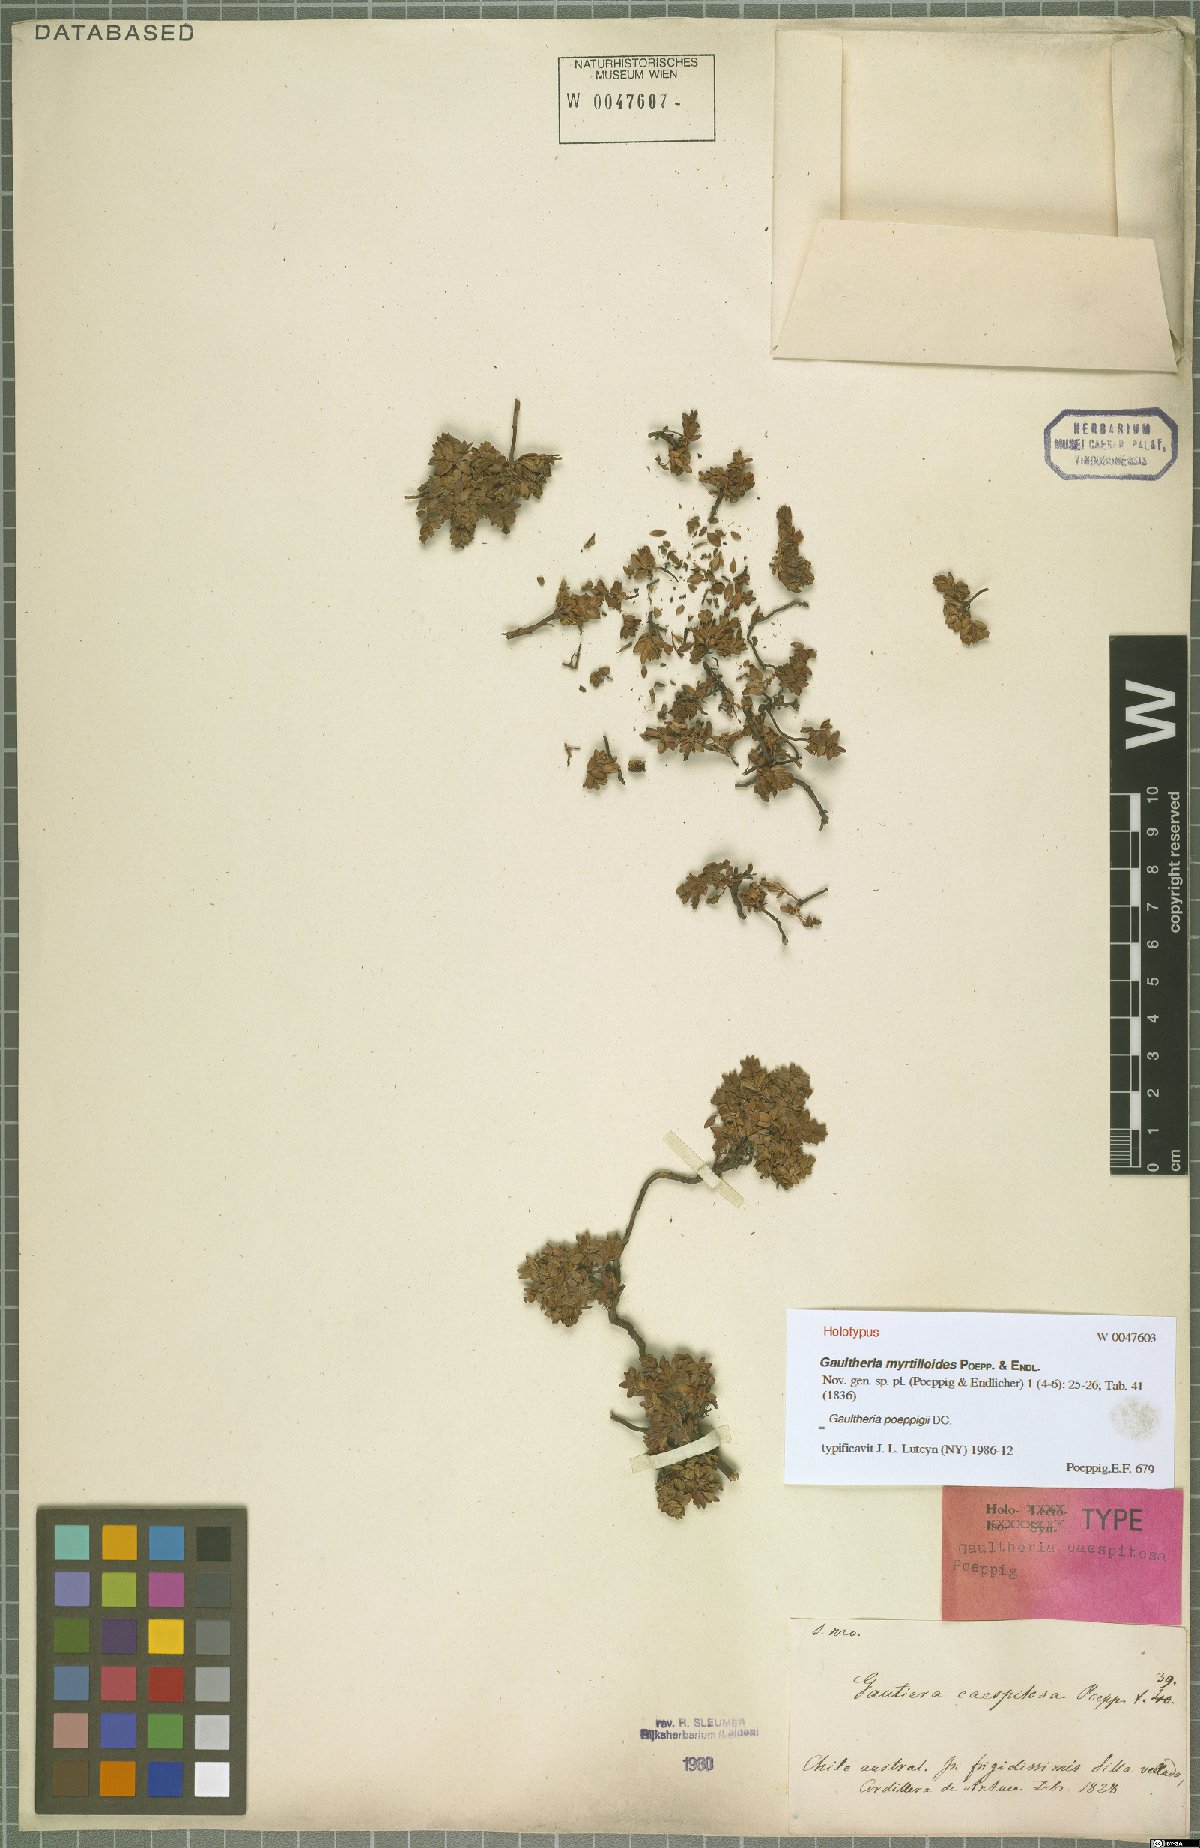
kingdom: Plantae
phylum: Tracheophyta
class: Magnoliopsida
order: Ericales
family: Ericaceae
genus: Gaultheria
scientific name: Gaultheria caespitosa
